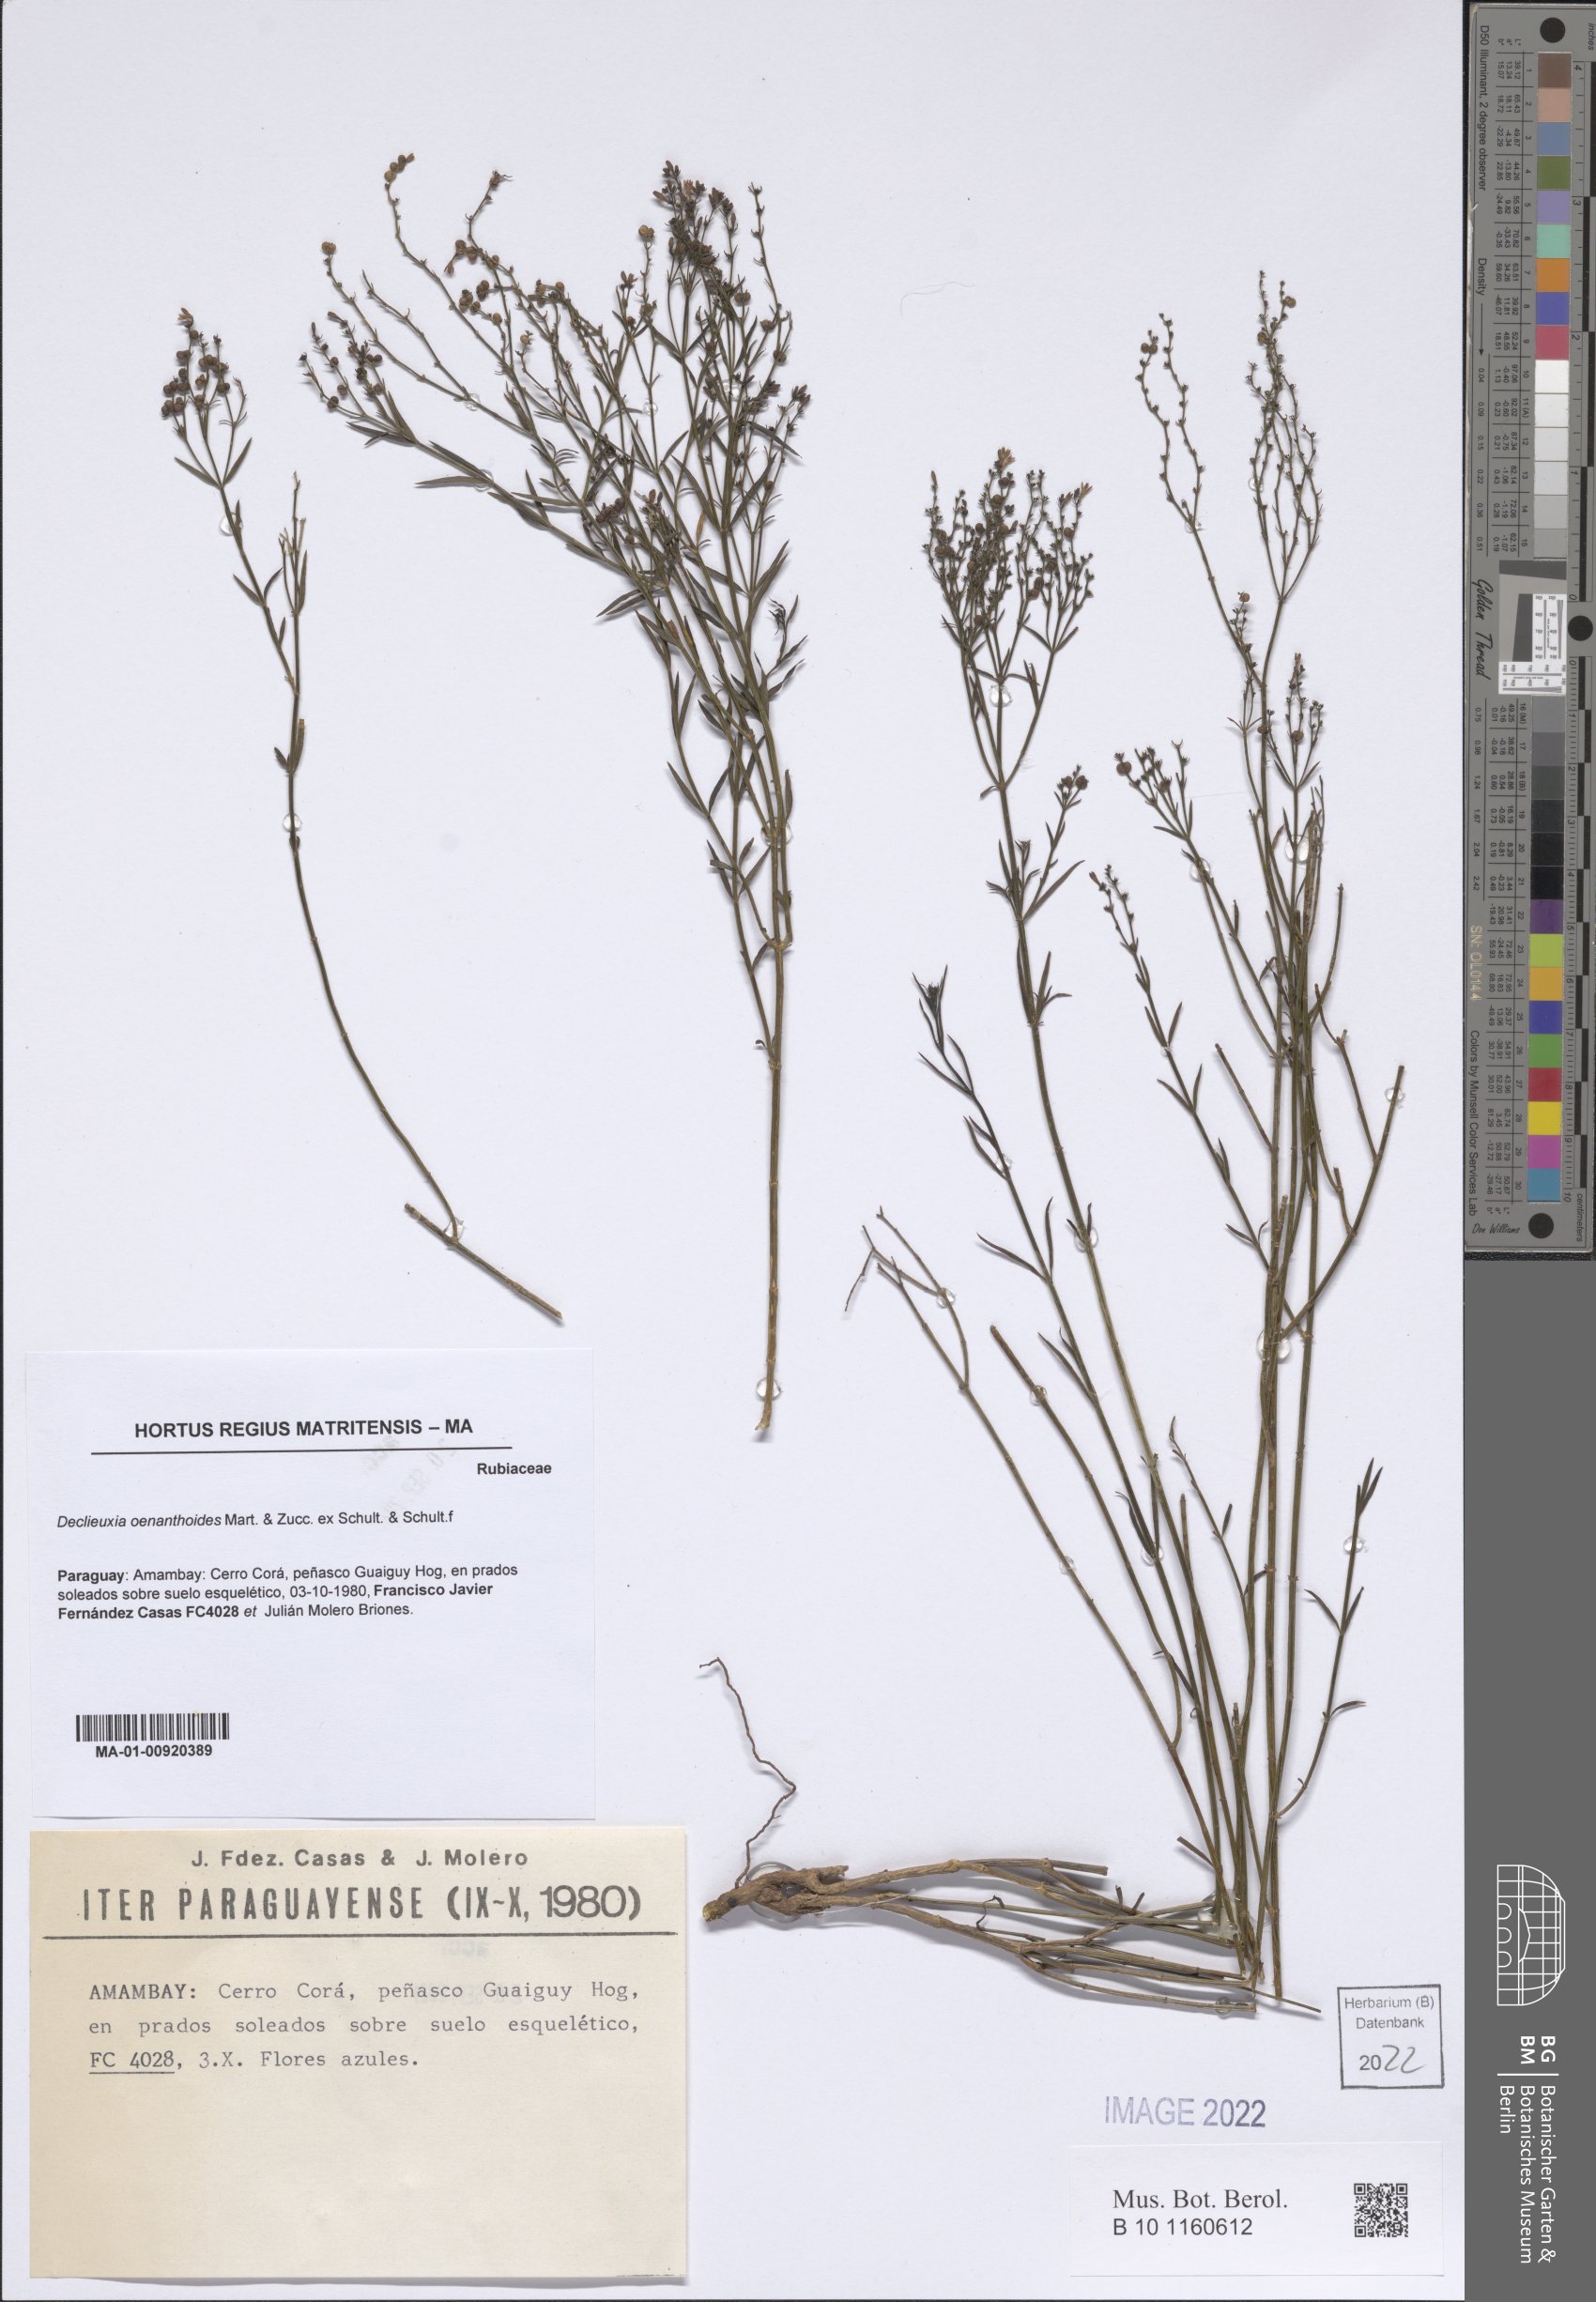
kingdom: Plantae
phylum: Tracheophyta
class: Magnoliopsida
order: Gentianales
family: Rubiaceae
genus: Declieuxia
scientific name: Declieuxia oenanthoides
